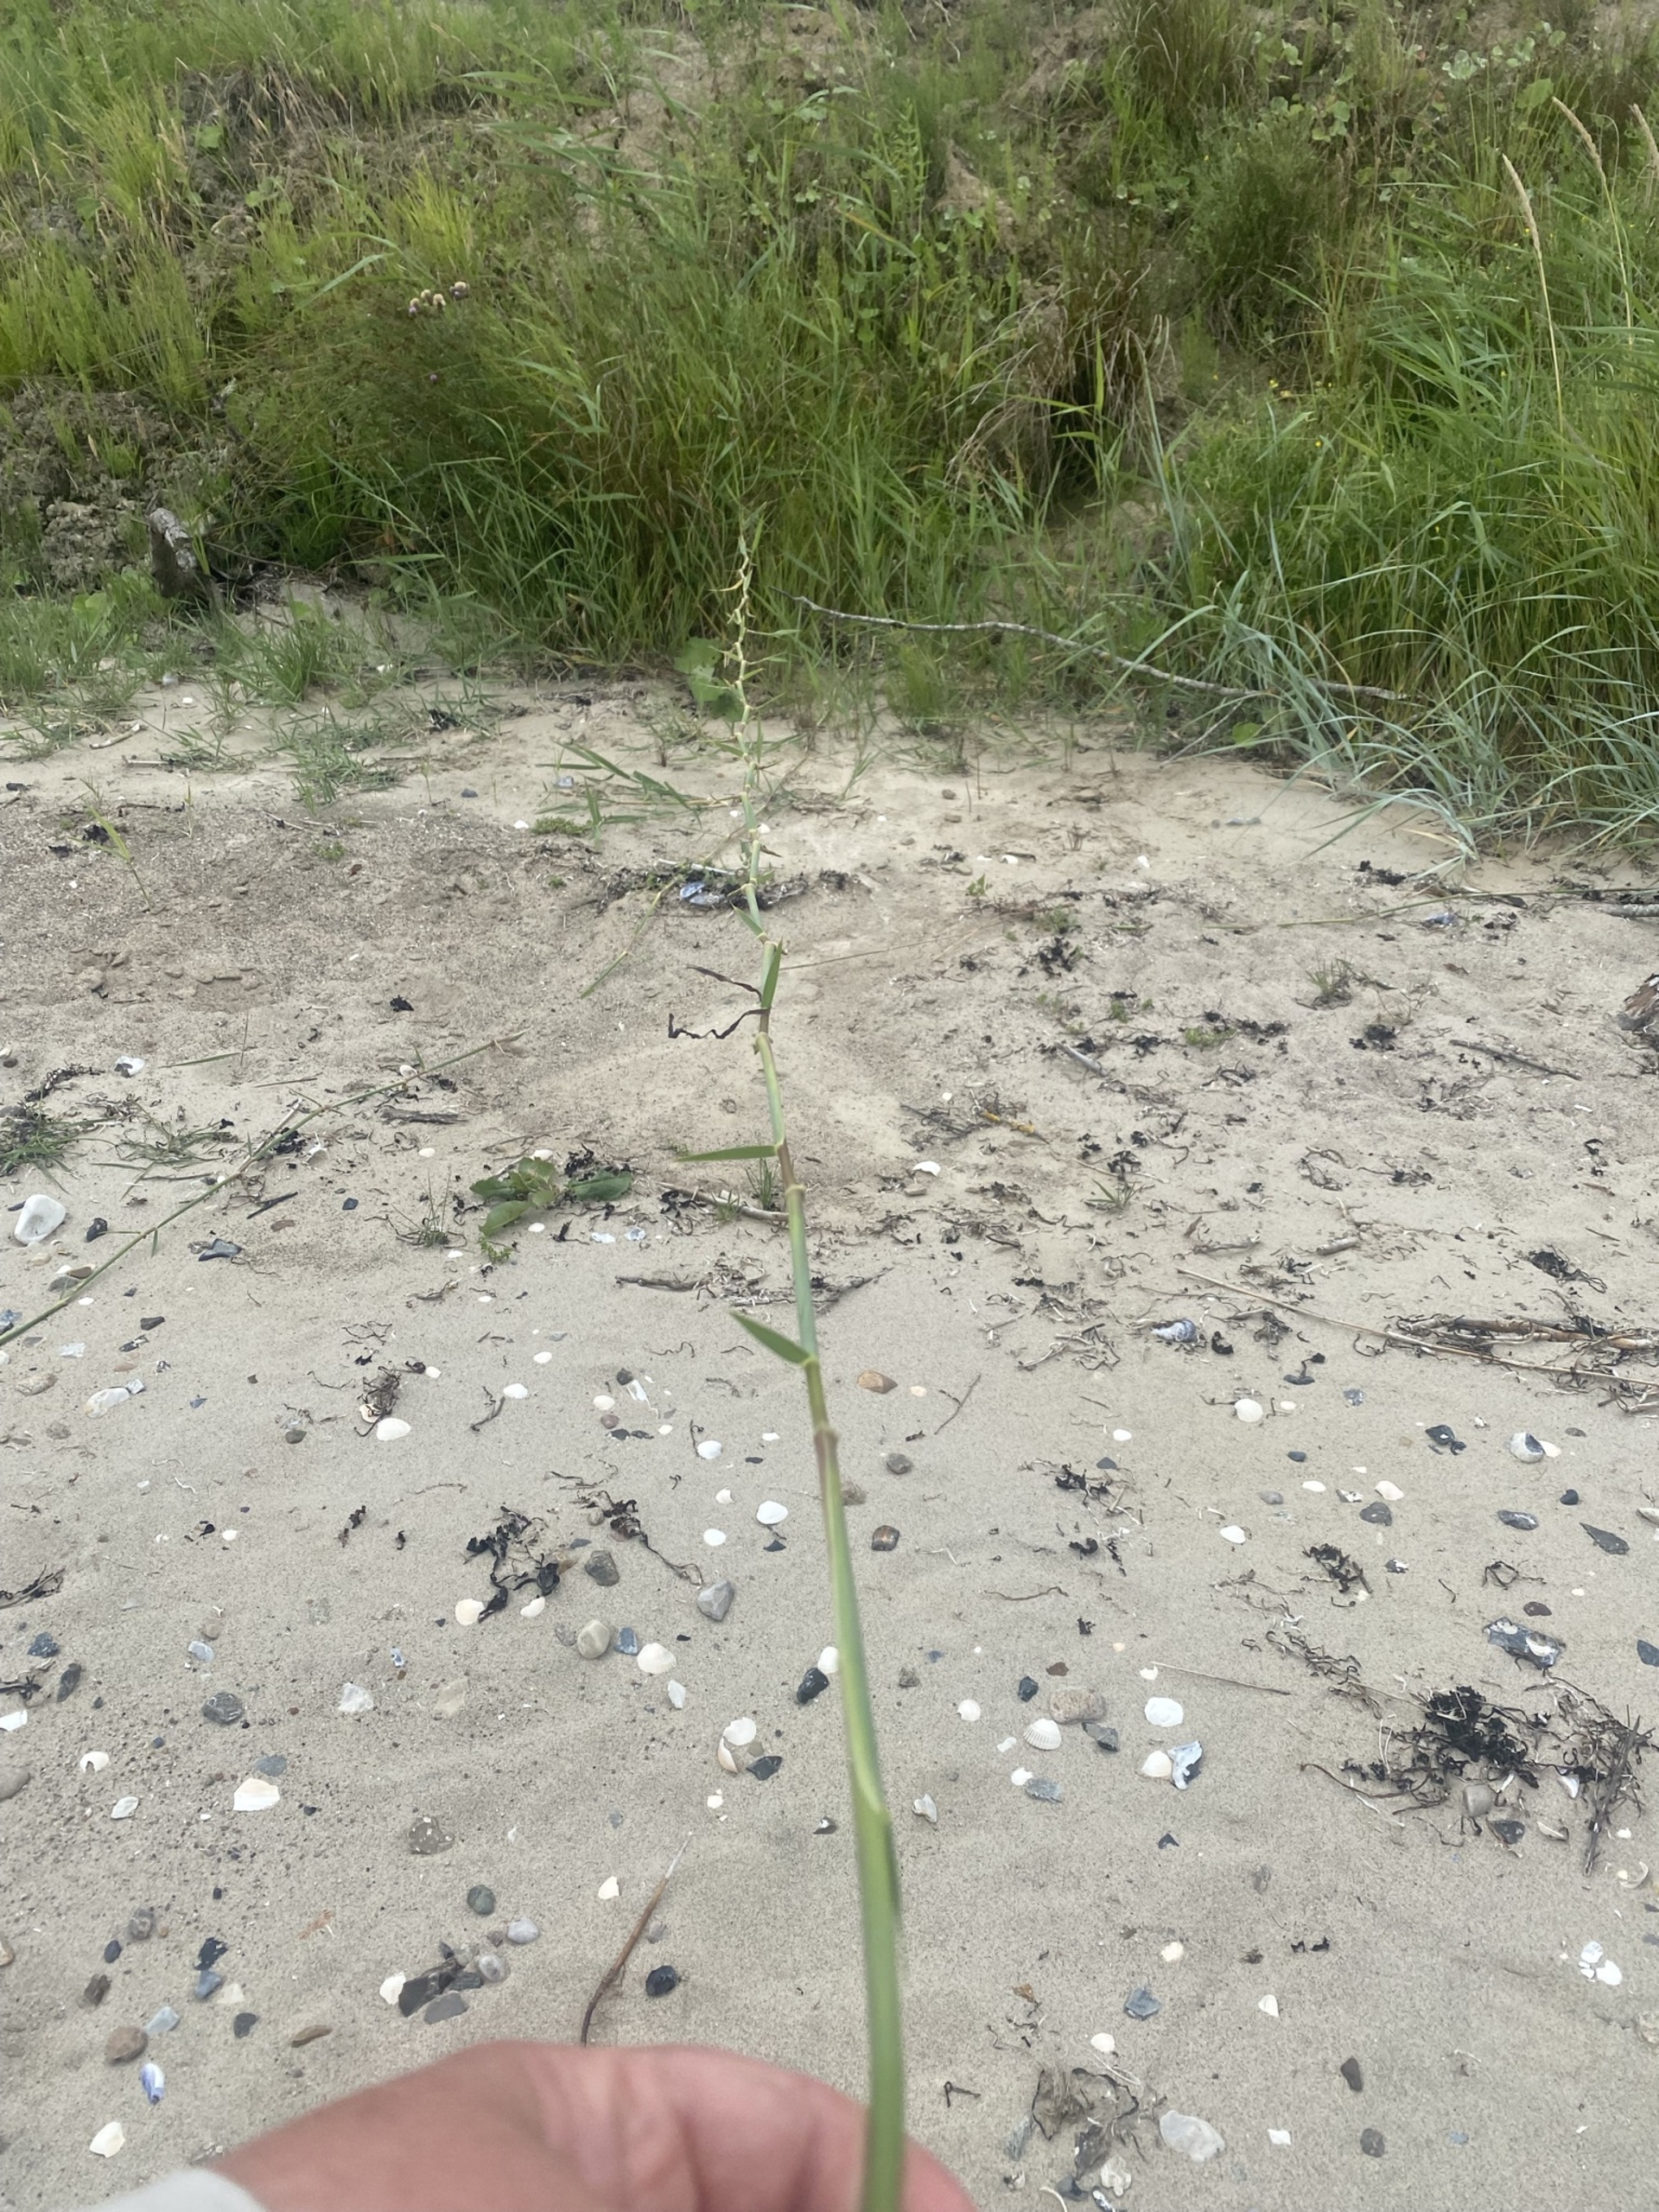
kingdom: Plantae
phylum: Tracheophyta
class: Liliopsida
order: Poales
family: Poaceae
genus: Phragmites
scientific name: Phragmites australis
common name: Tagrør
